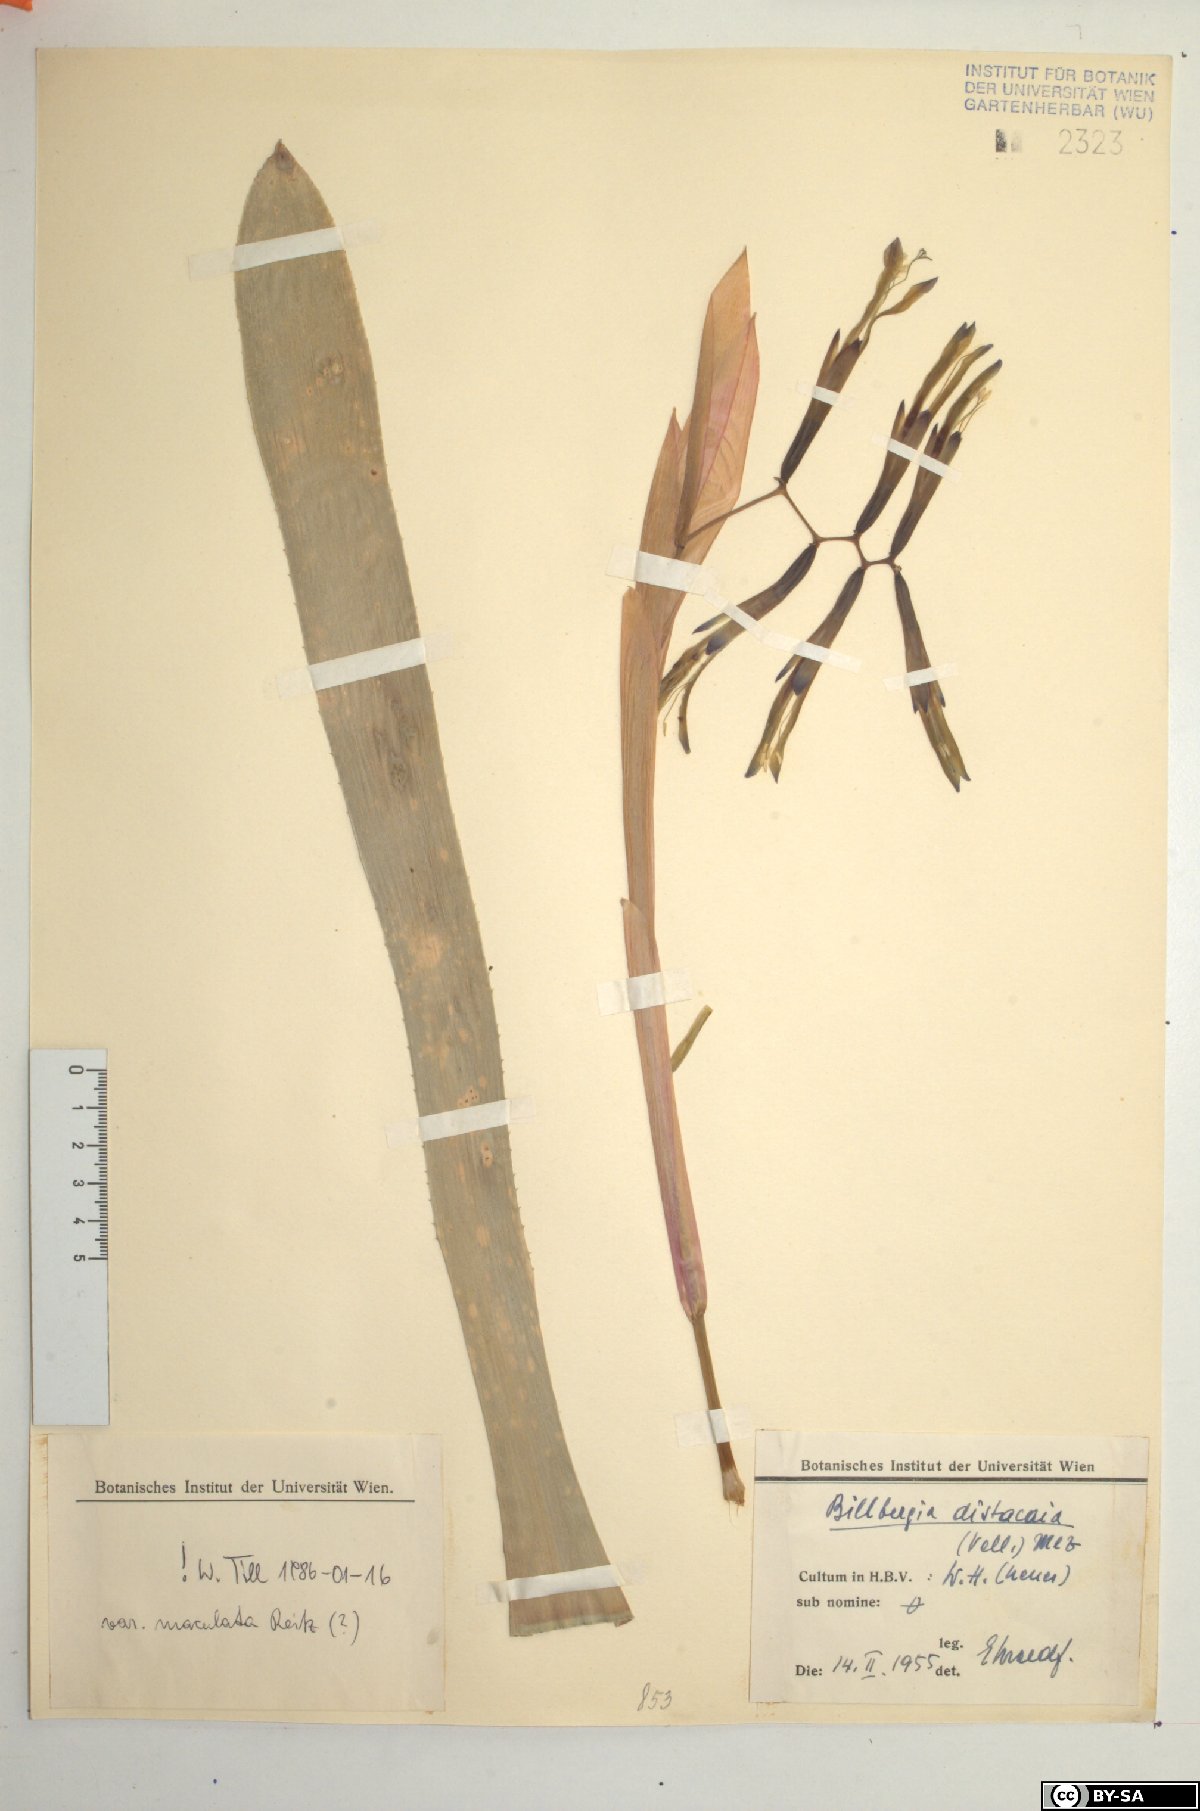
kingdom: Plantae
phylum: Tracheophyta
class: Liliopsida
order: Poales
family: Bromeliaceae
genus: Billbergia
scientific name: Billbergia distachia
